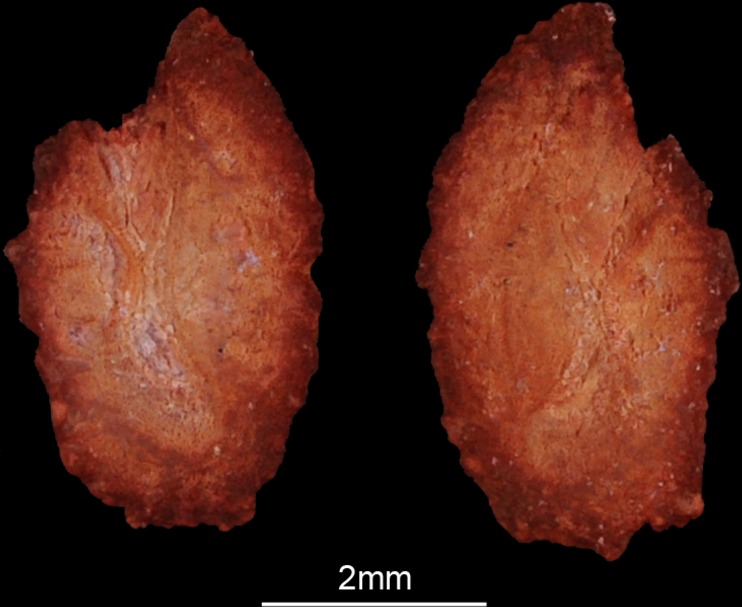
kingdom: Animalia
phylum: Chordata
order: Perciformes
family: Cichlidae
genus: Sargochromis
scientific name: Sargochromis carlottae
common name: Rainbow happy
